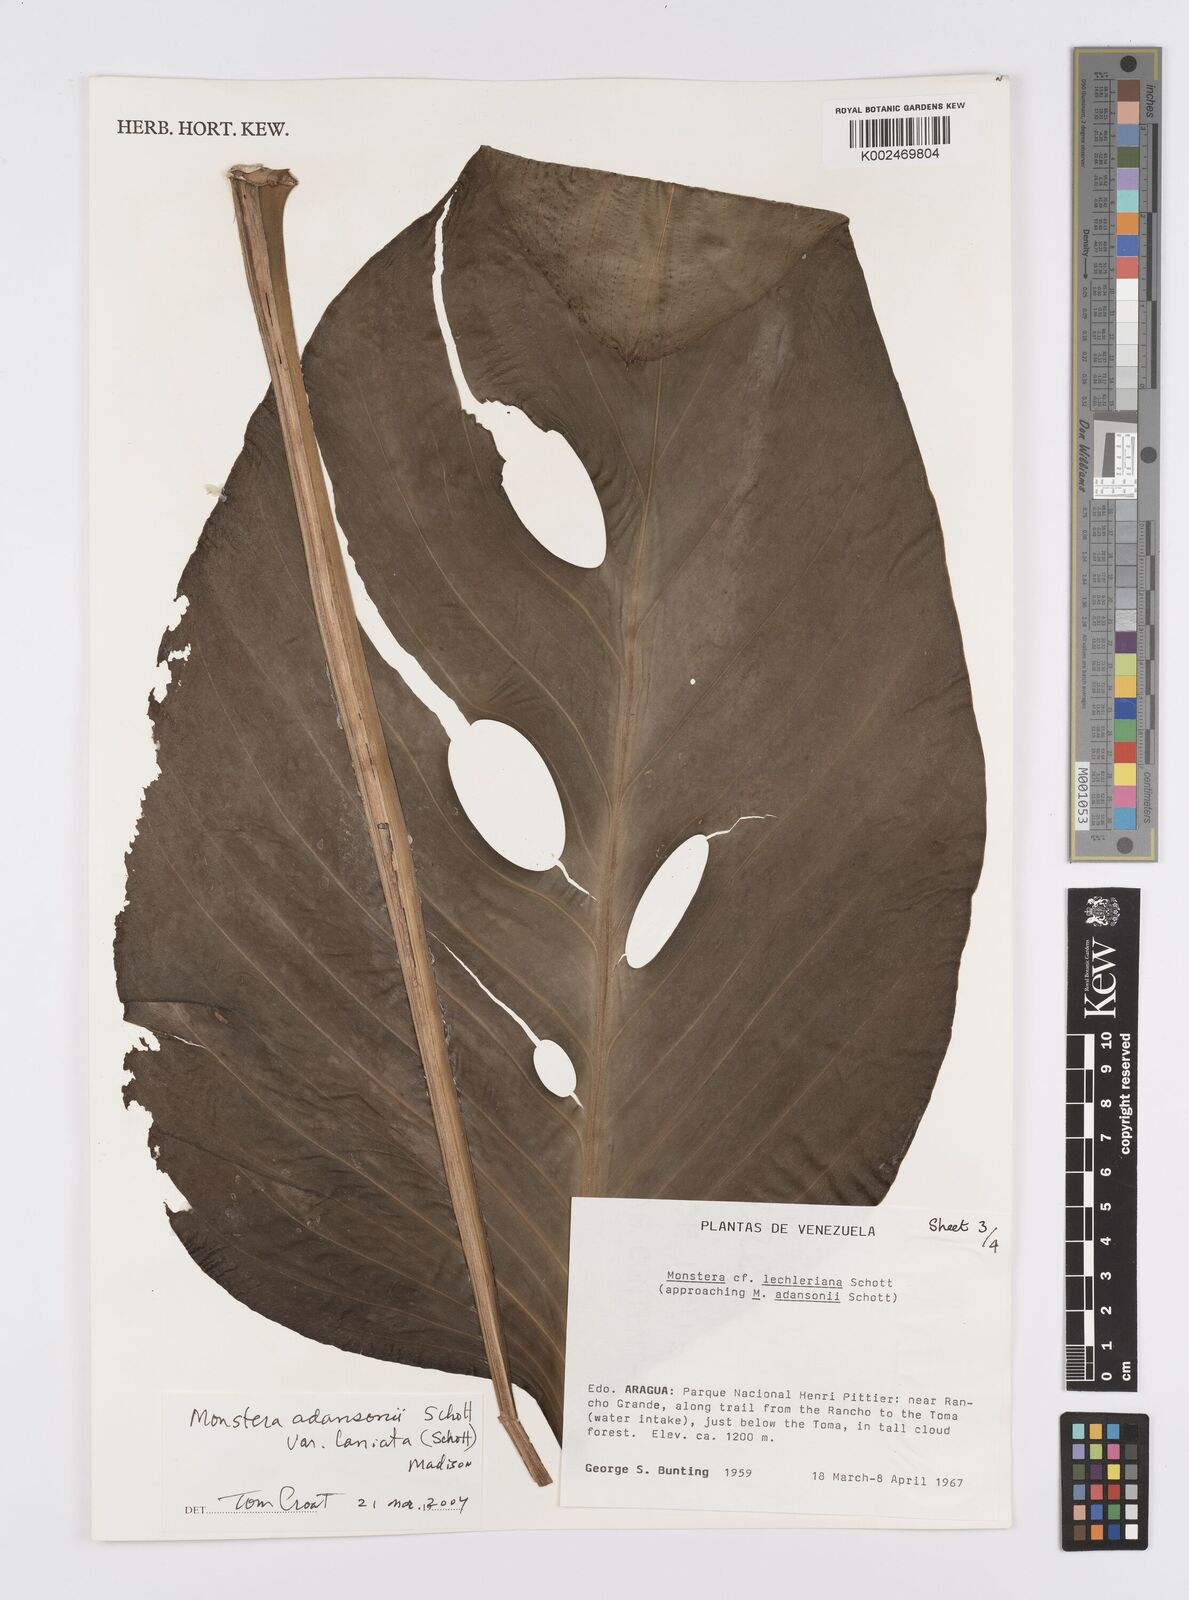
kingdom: Plantae
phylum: Tracheophyta
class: Liliopsida
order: Alismatales
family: Araceae
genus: Monstera
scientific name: Monstera adansonii
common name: Tarovine
